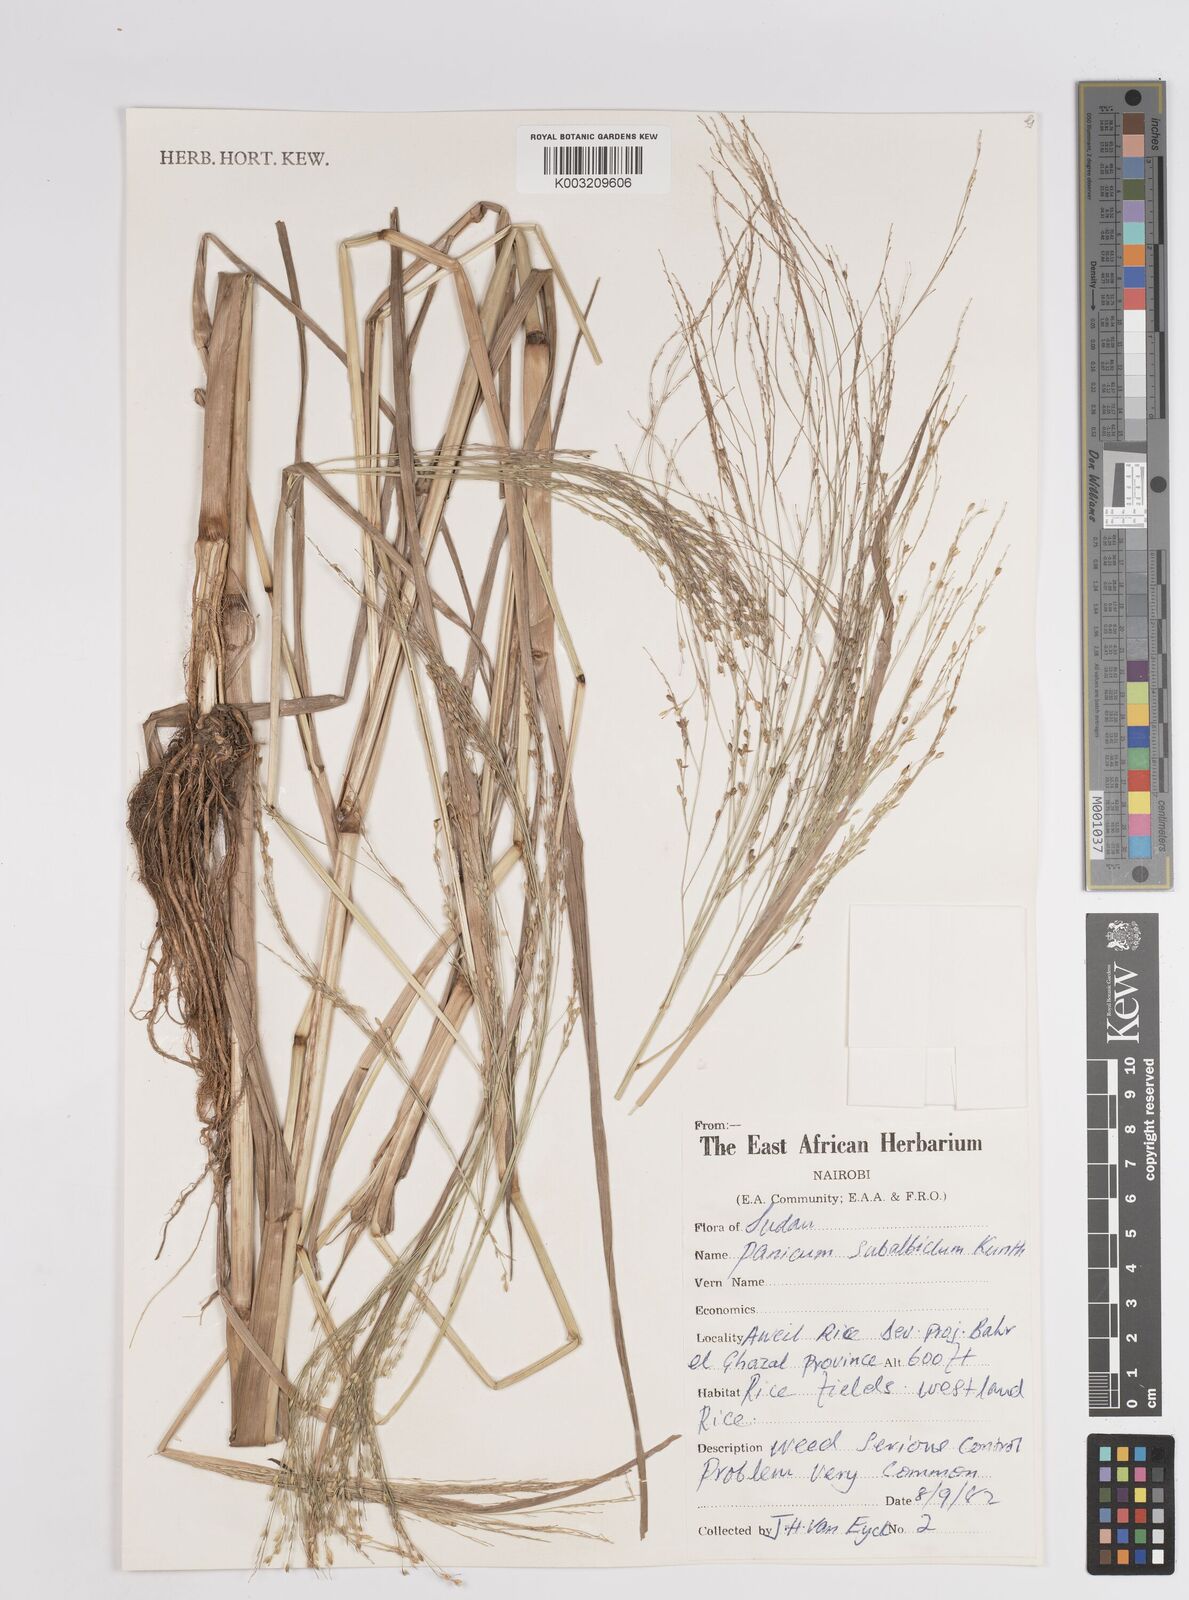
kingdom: Plantae
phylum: Tracheophyta
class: Liliopsida
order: Poales
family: Poaceae
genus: Panicum
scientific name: Panicum subalbidum
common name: Elbow buffalo grass
